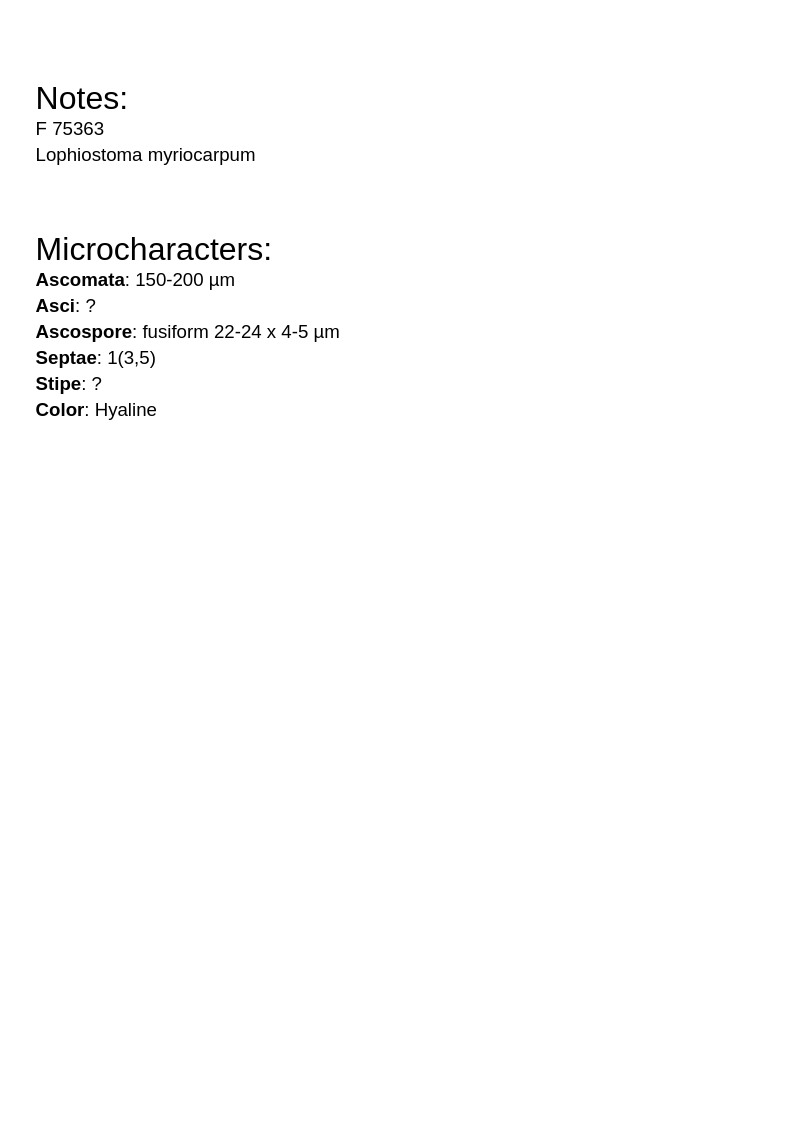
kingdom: Fungi
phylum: Ascomycota
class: Dothideomycetes
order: Pleosporales
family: Lophiostomataceae
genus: Lophiostoma
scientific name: Lophiostoma myriocarpum
